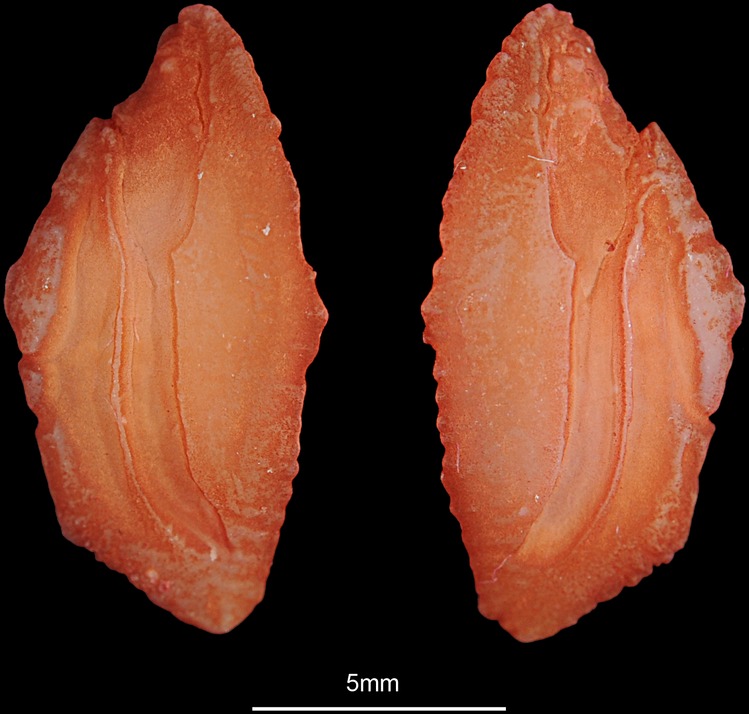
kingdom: Animalia
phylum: Chordata
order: Perciformes
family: Sparidae
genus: Argyrozona
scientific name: Argyrozona argyrozona
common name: Carpenter
